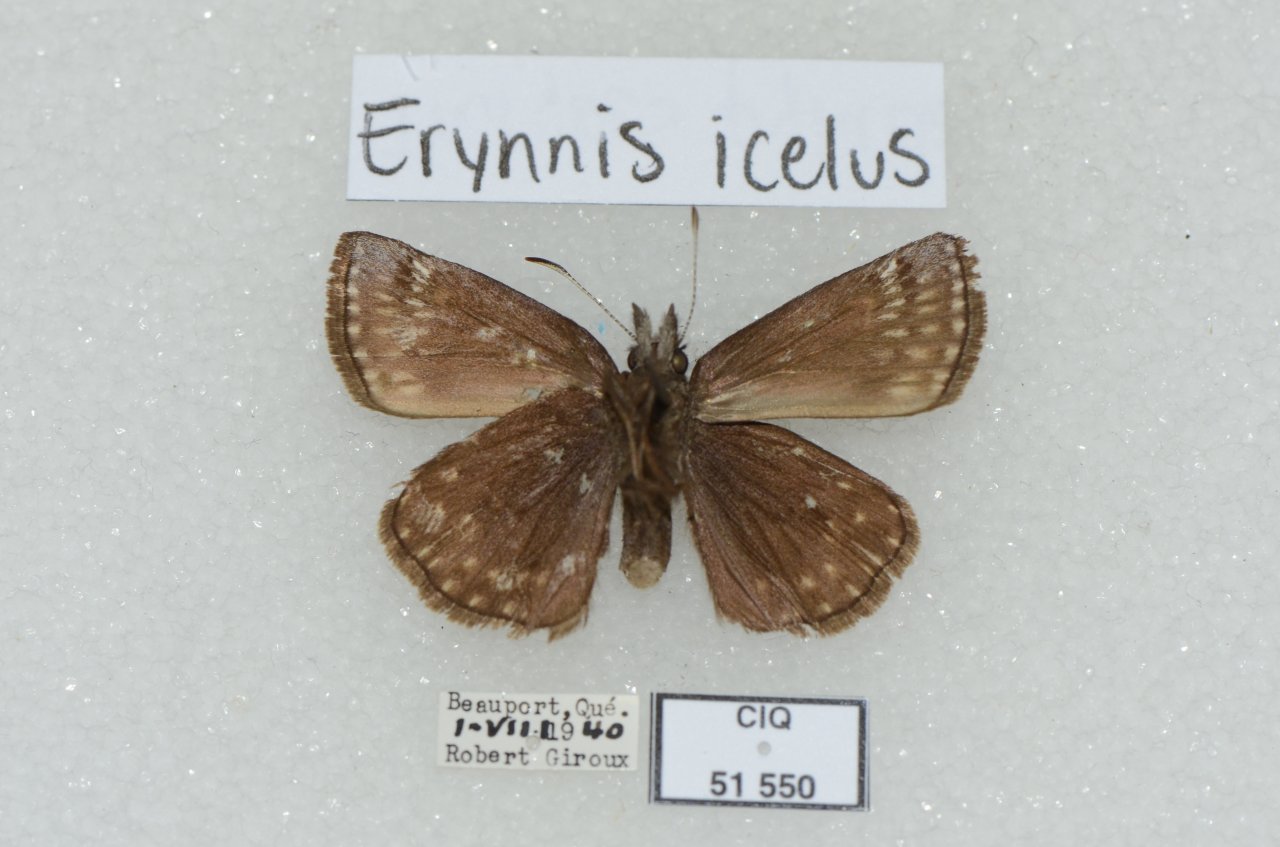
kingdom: Animalia
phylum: Arthropoda
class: Insecta
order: Lepidoptera
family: Hesperiidae
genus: Erynnis
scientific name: Erynnis icelus
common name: Dreamy Duskywing
